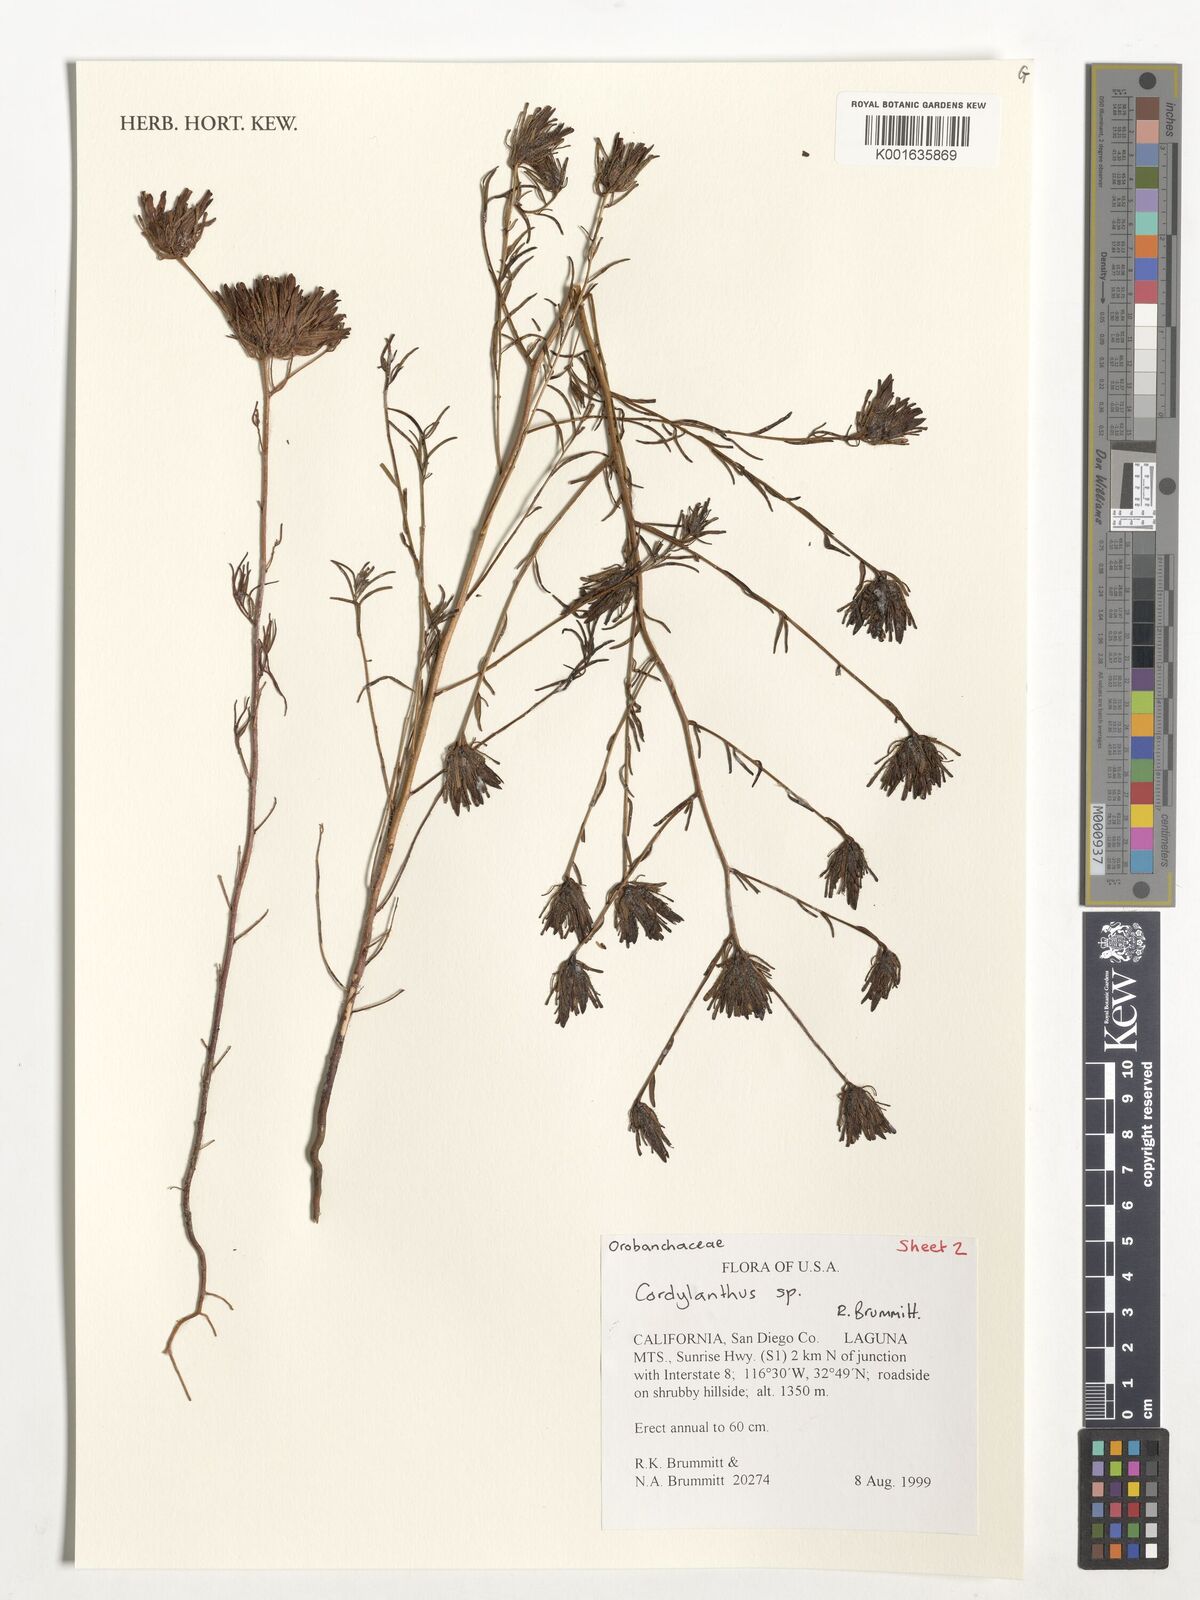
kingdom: Plantae
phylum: Tracheophyta
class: Magnoliopsida
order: Lamiales
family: Orobanchaceae
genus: Cordylanthus
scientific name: Cordylanthus
